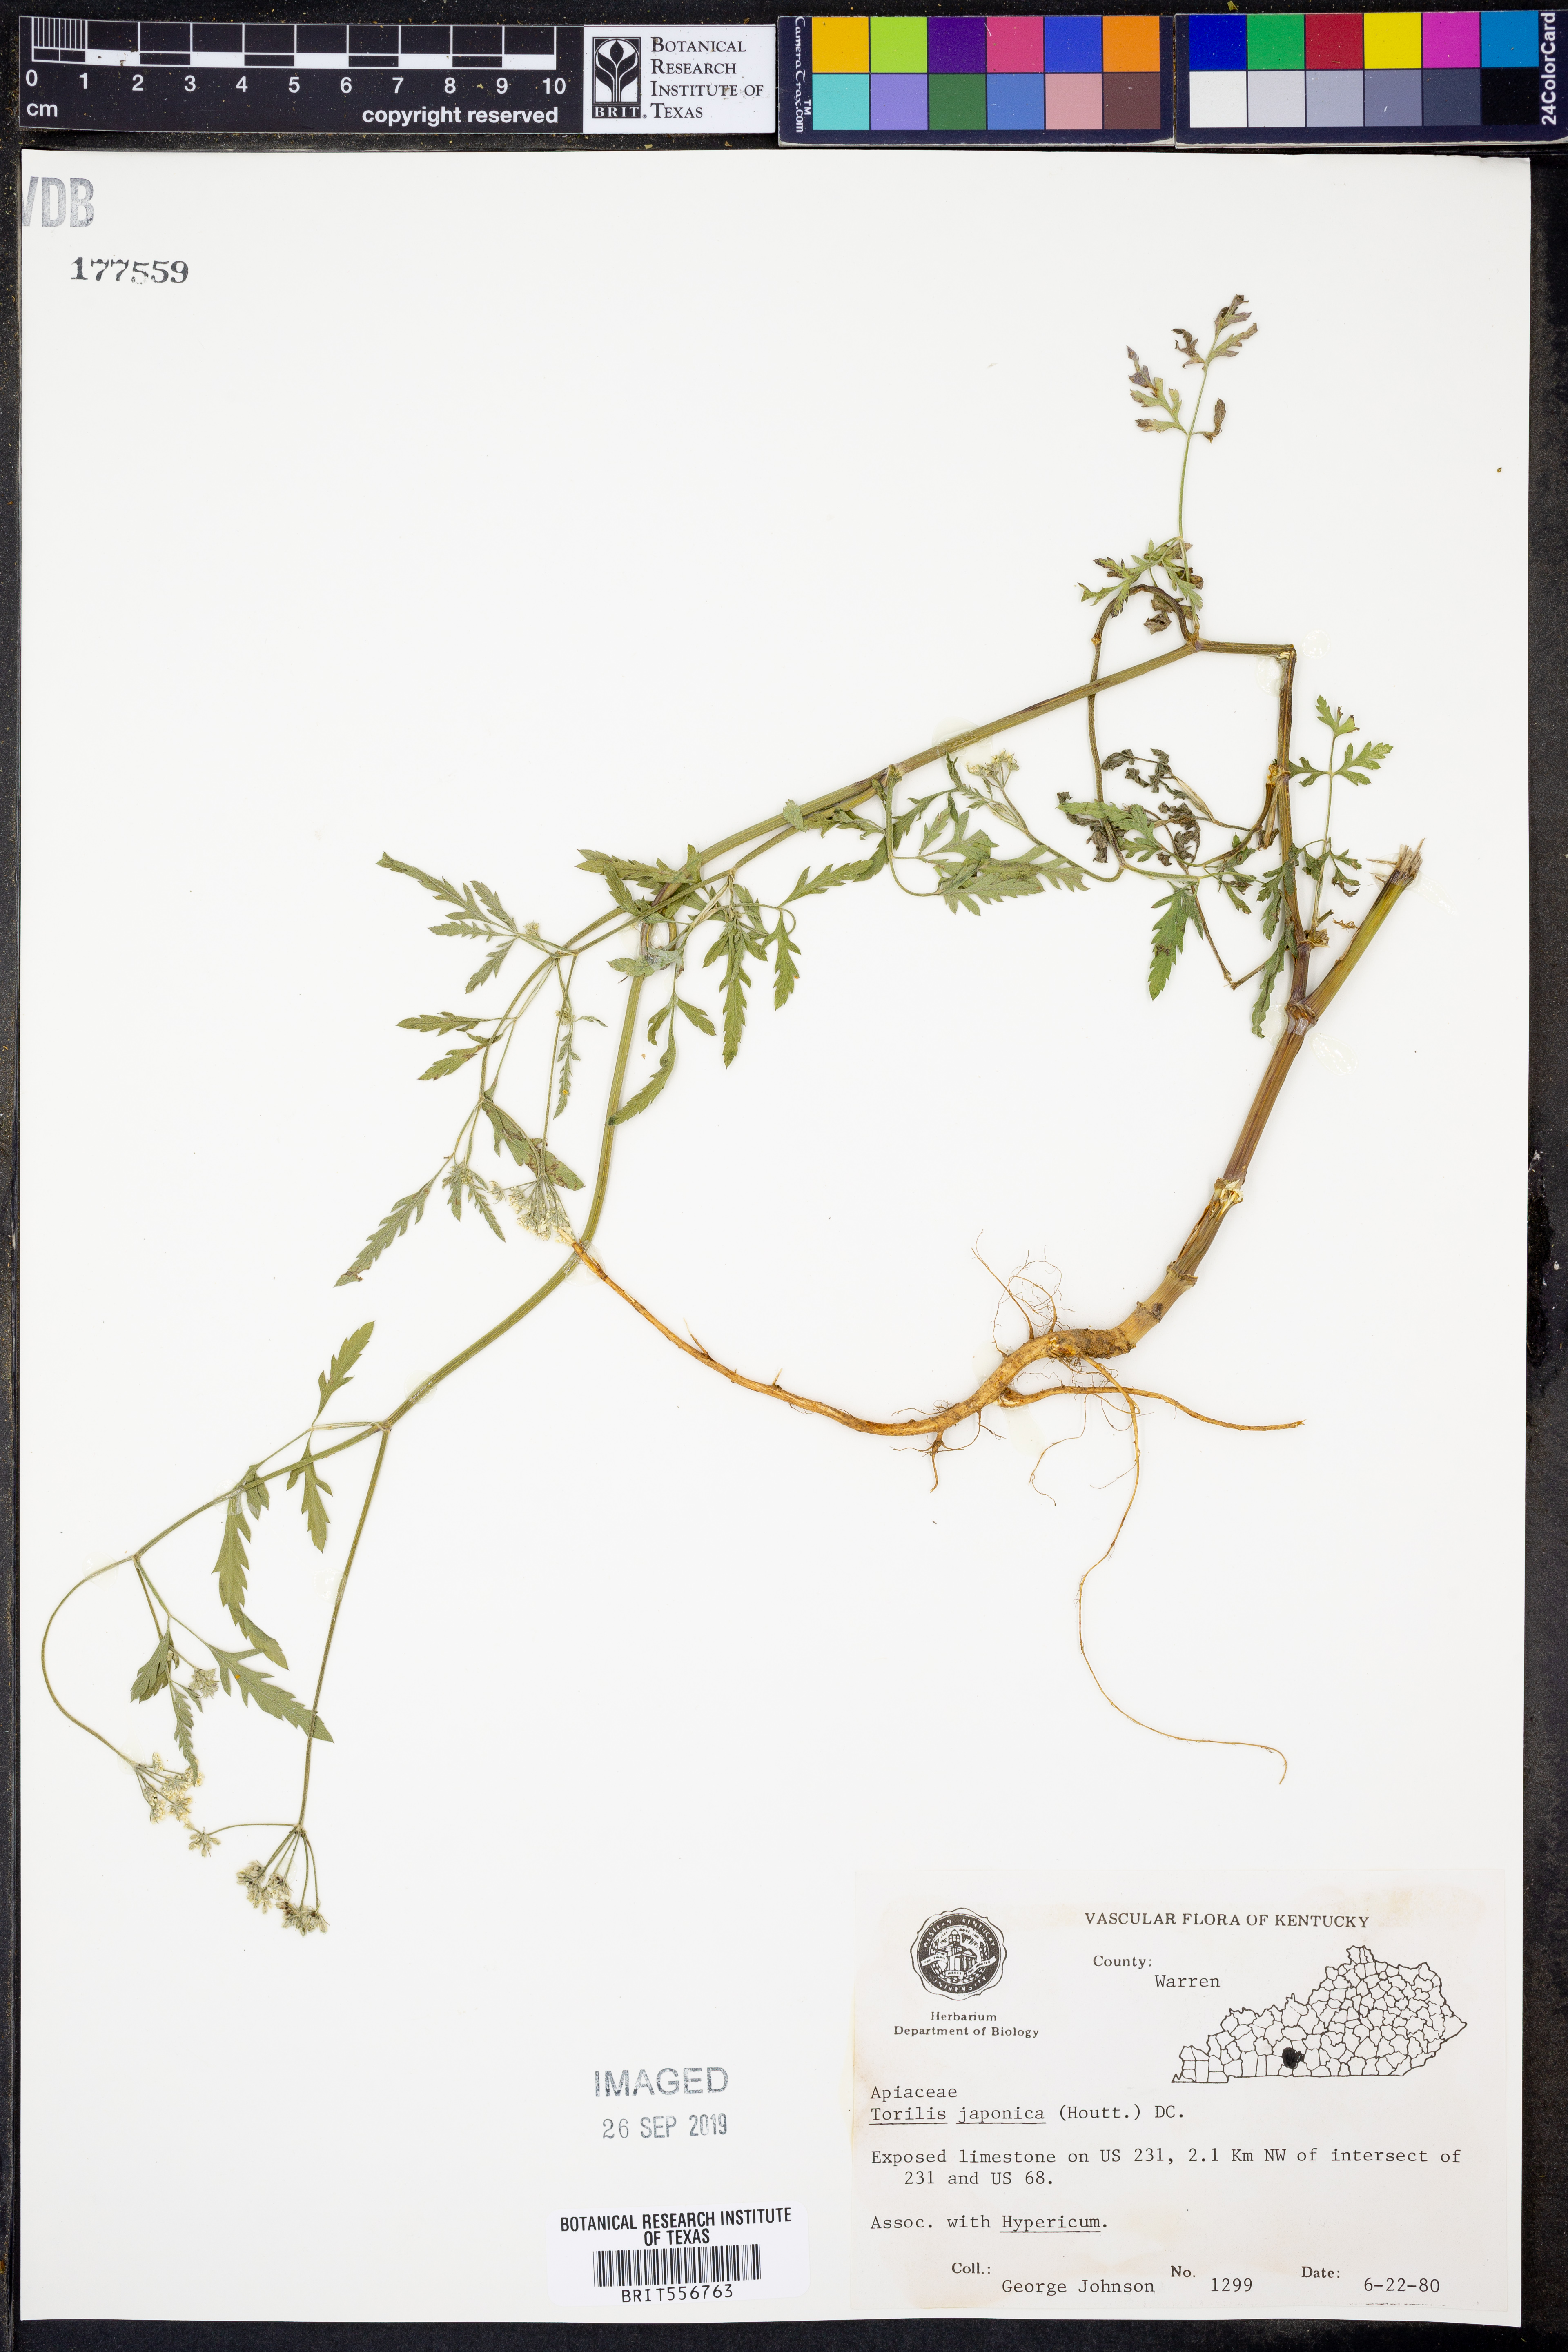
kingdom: Plantae
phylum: Tracheophyta
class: Magnoliopsida
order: Apiales
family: Apiaceae
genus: Torilis
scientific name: Torilis japonica
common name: Upright hedge-parsley
